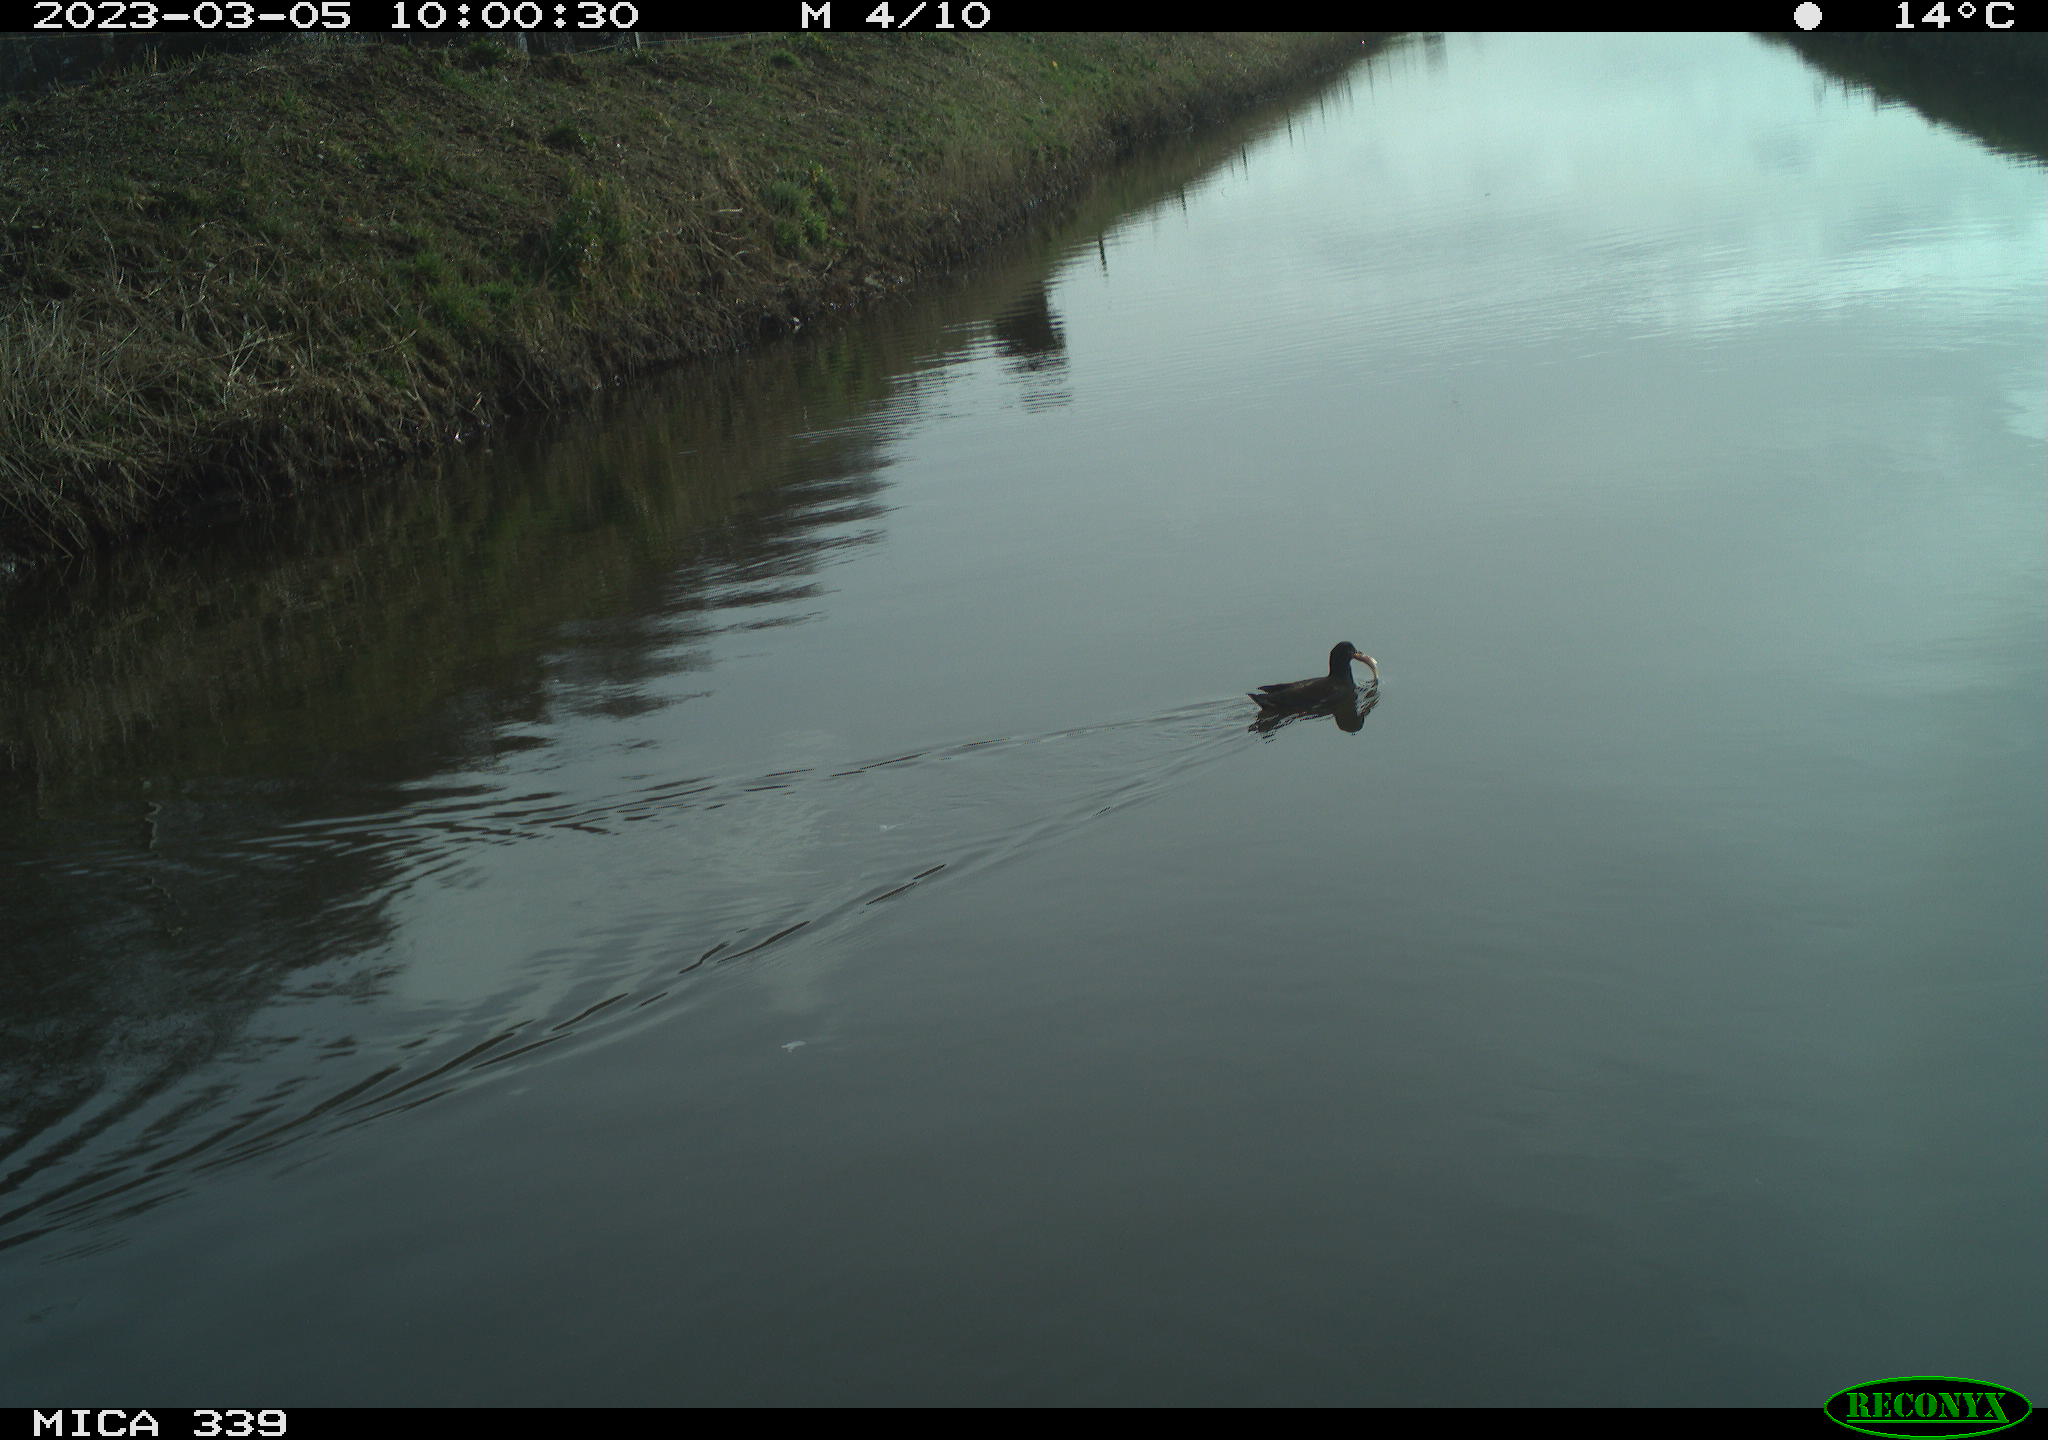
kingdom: Animalia
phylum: Chordata
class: Aves
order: Gruiformes
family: Rallidae
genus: Gallinula
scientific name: Gallinula chloropus
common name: Common moorhen
